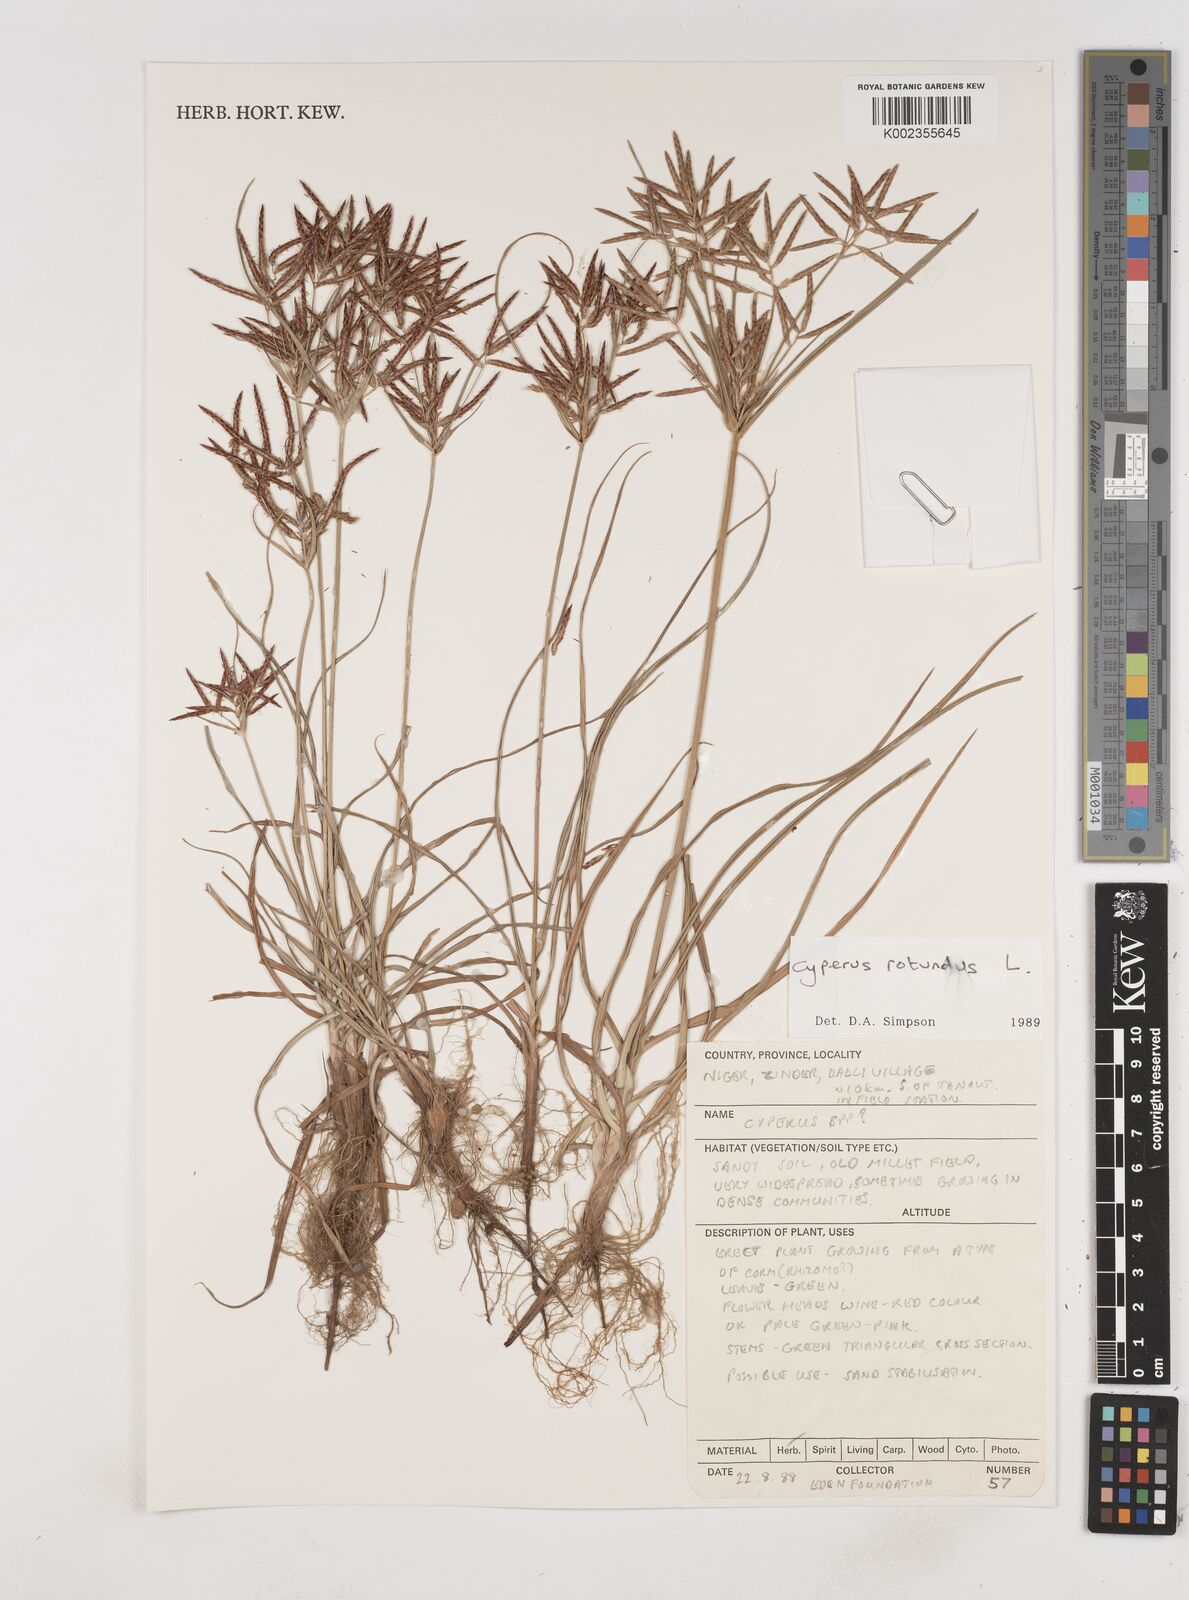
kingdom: Plantae
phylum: Tracheophyta
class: Liliopsida
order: Poales
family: Cyperaceae
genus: Cyperus
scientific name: Cyperus rotundus
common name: Nutgrass
